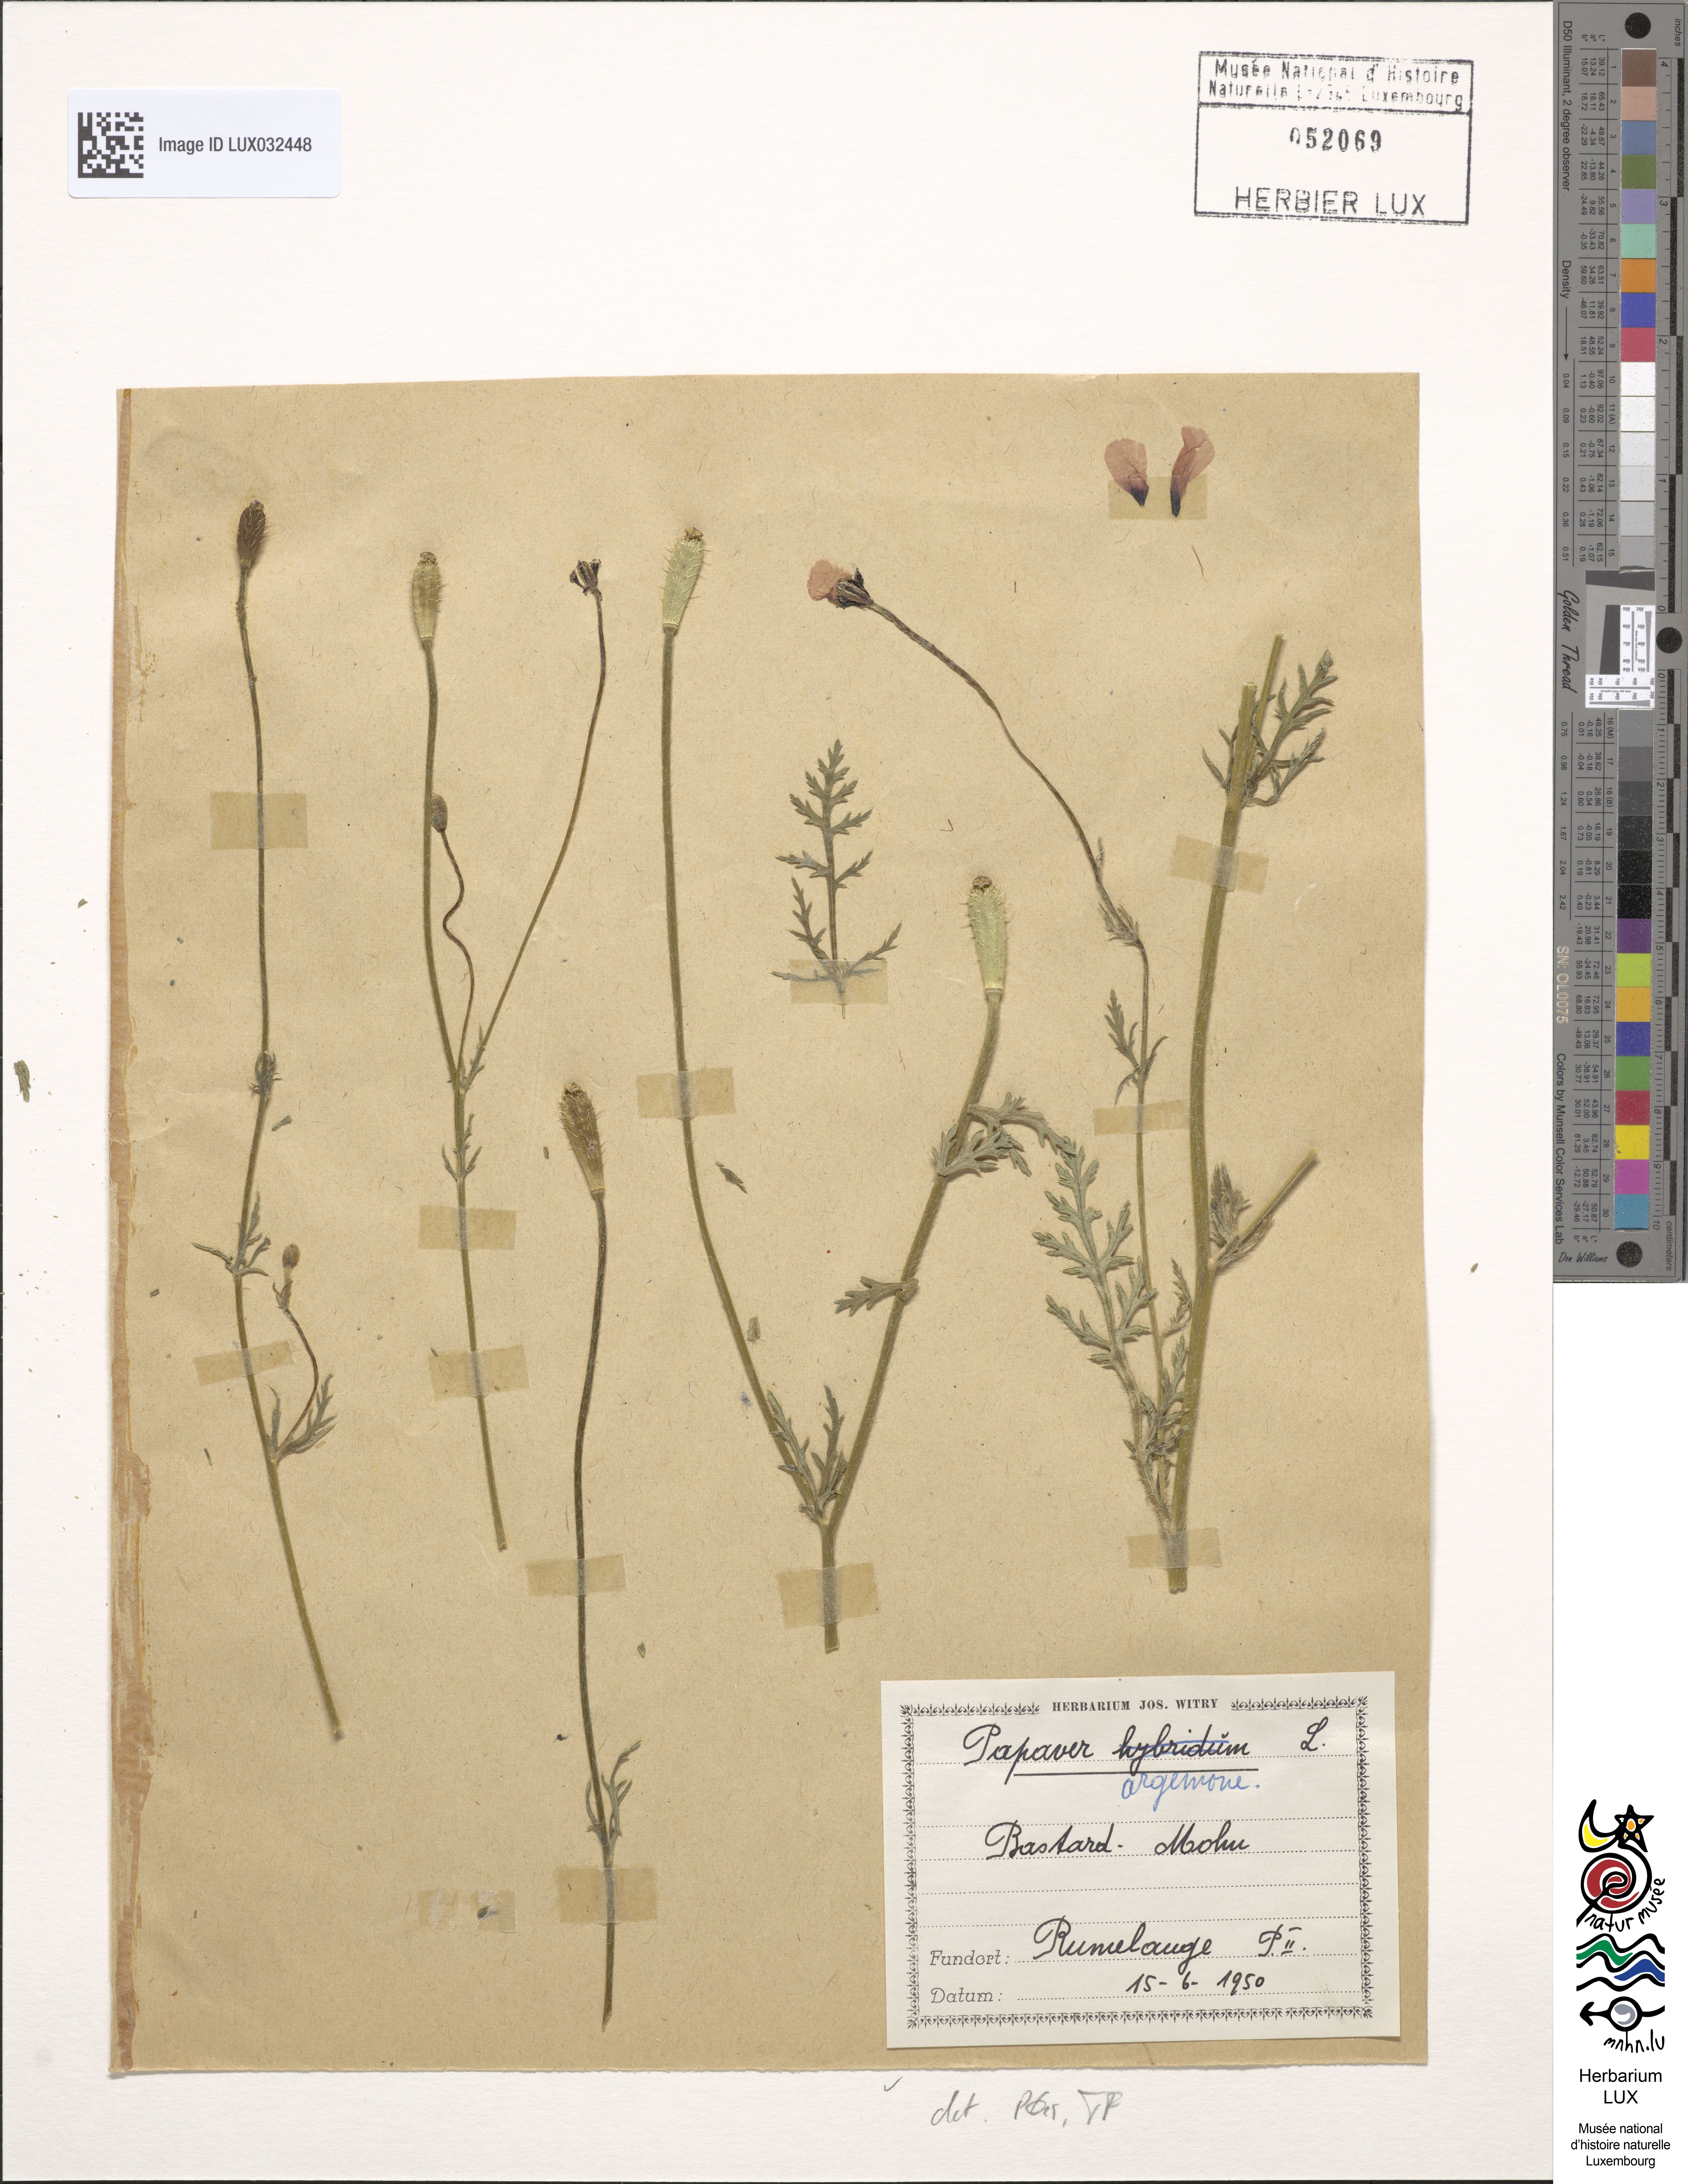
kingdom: Plantae
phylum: Tracheophyta
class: Magnoliopsida
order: Ranunculales
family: Papaveraceae
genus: Roemeria
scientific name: Roemeria argemone
